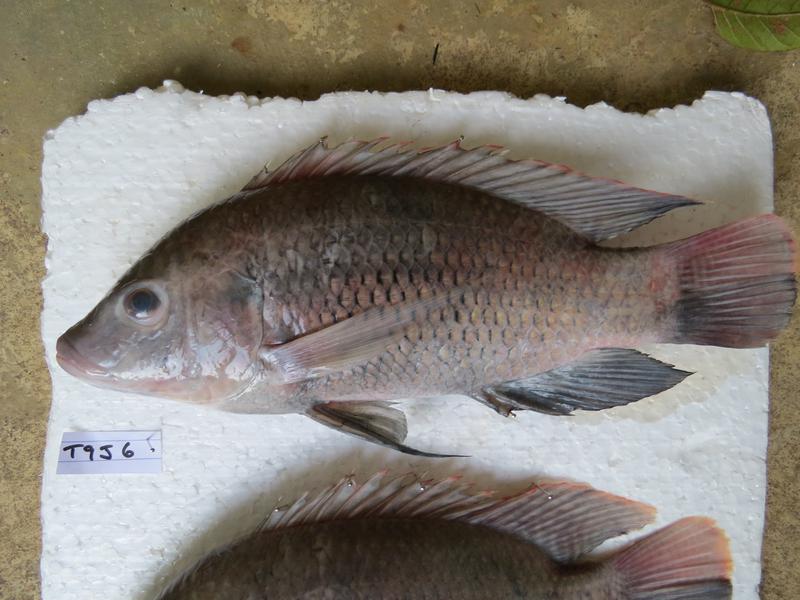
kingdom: Animalia
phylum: Chordata
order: Perciformes
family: Cichlidae
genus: Oreochromis
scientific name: Oreochromis urolepis
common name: Wami tilapia
